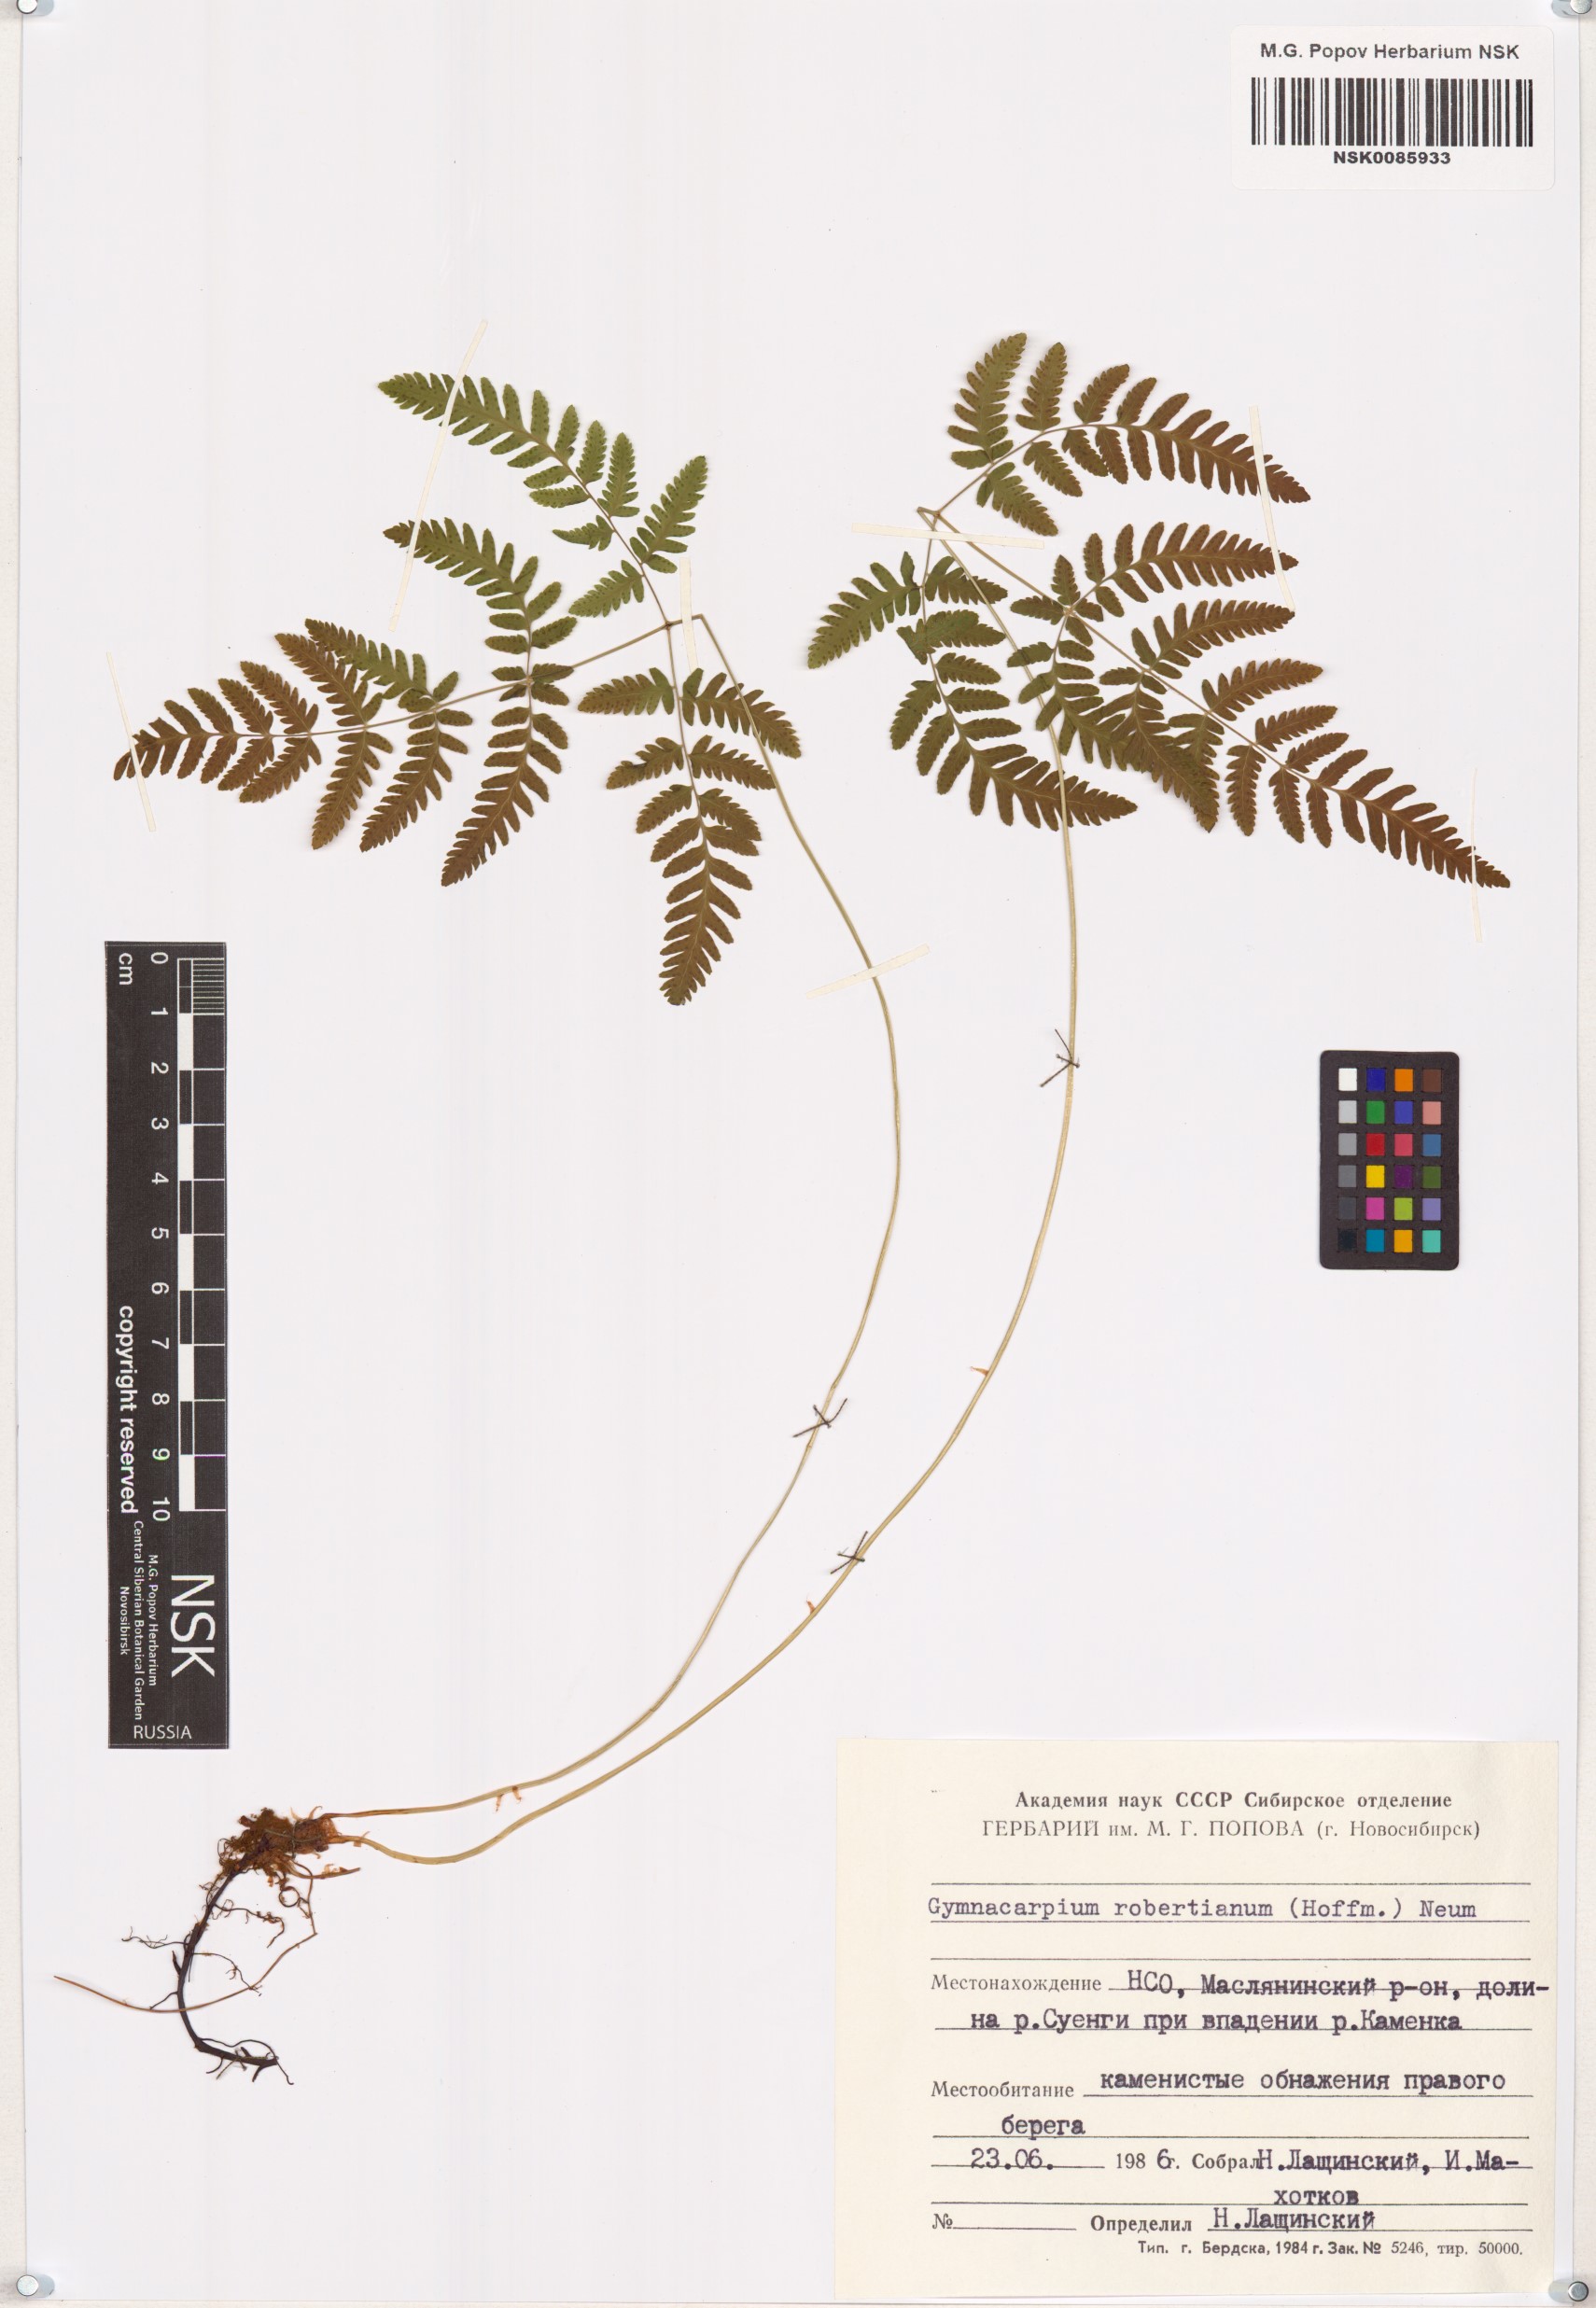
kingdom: Plantae
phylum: Tracheophyta
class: Polypodiopsida
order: Polypodiales
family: Cystopteridaceae
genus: Gymnocarpium
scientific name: Gymnocarpium robertianum
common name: Limestone fern
